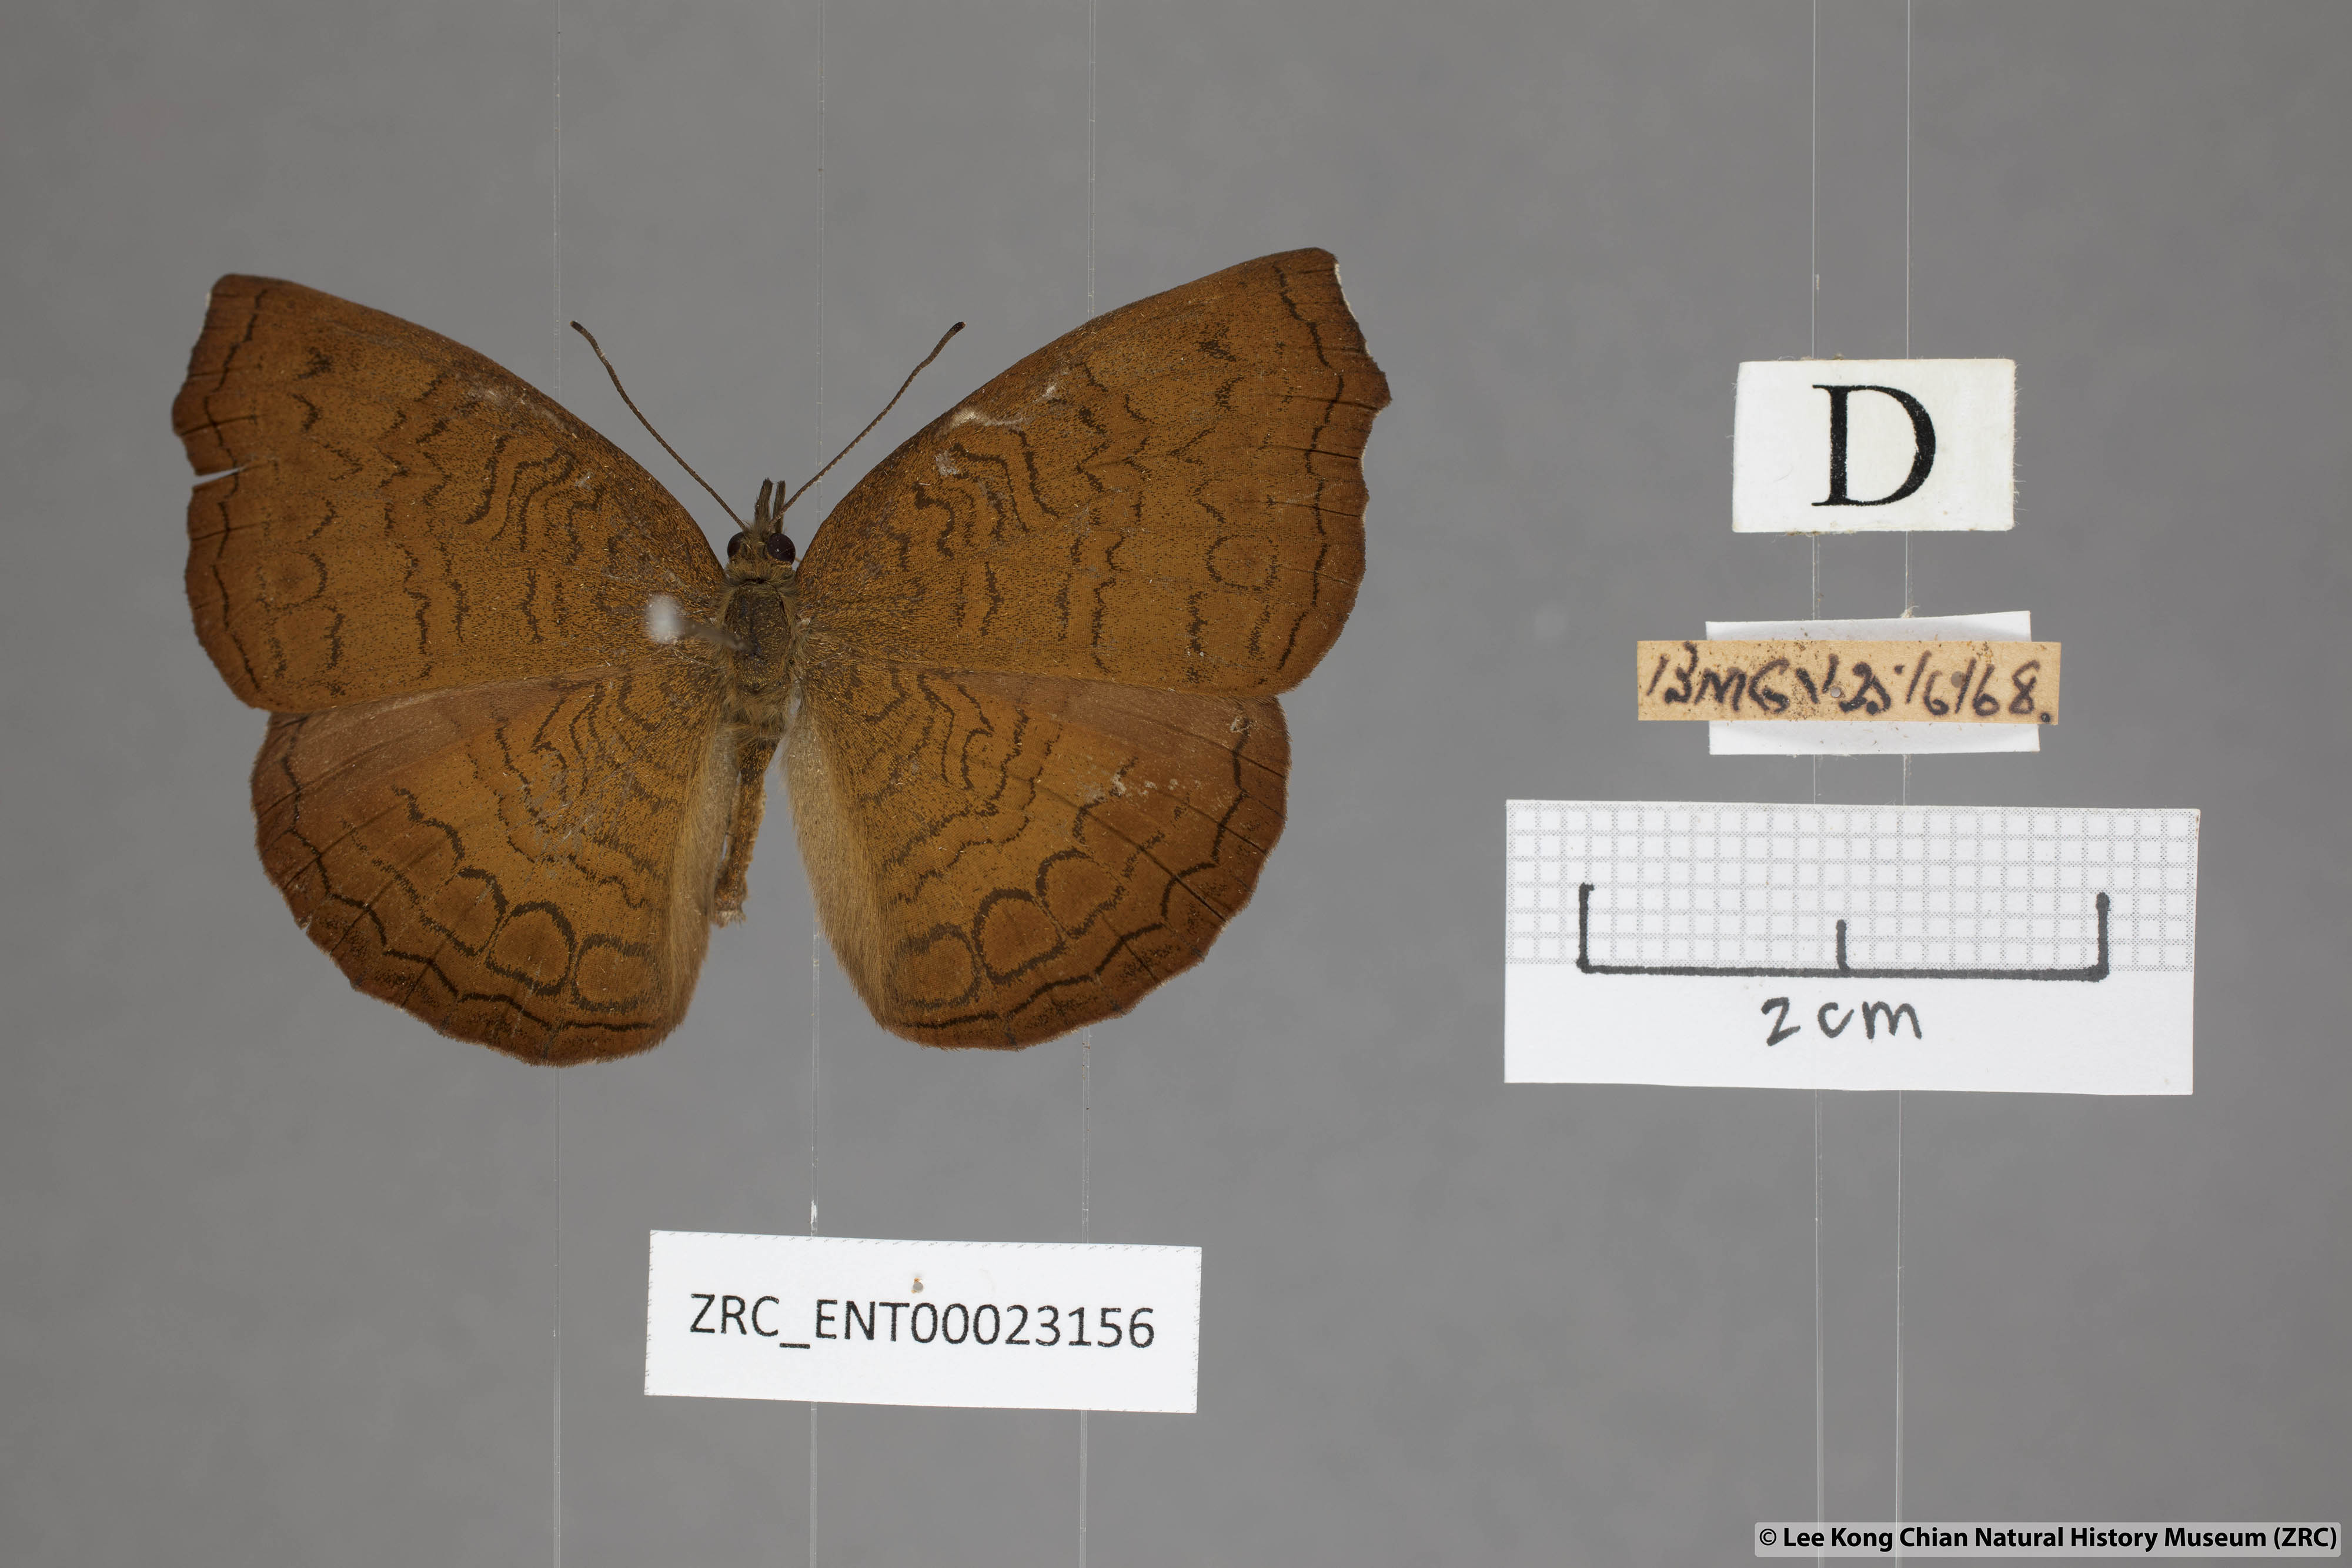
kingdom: Animalia
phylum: Arthropoda
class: Insecta
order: Lepidoptera
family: Nymphalidae
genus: Ariadne
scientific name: Ariadne isaeus
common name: Malayan castor
